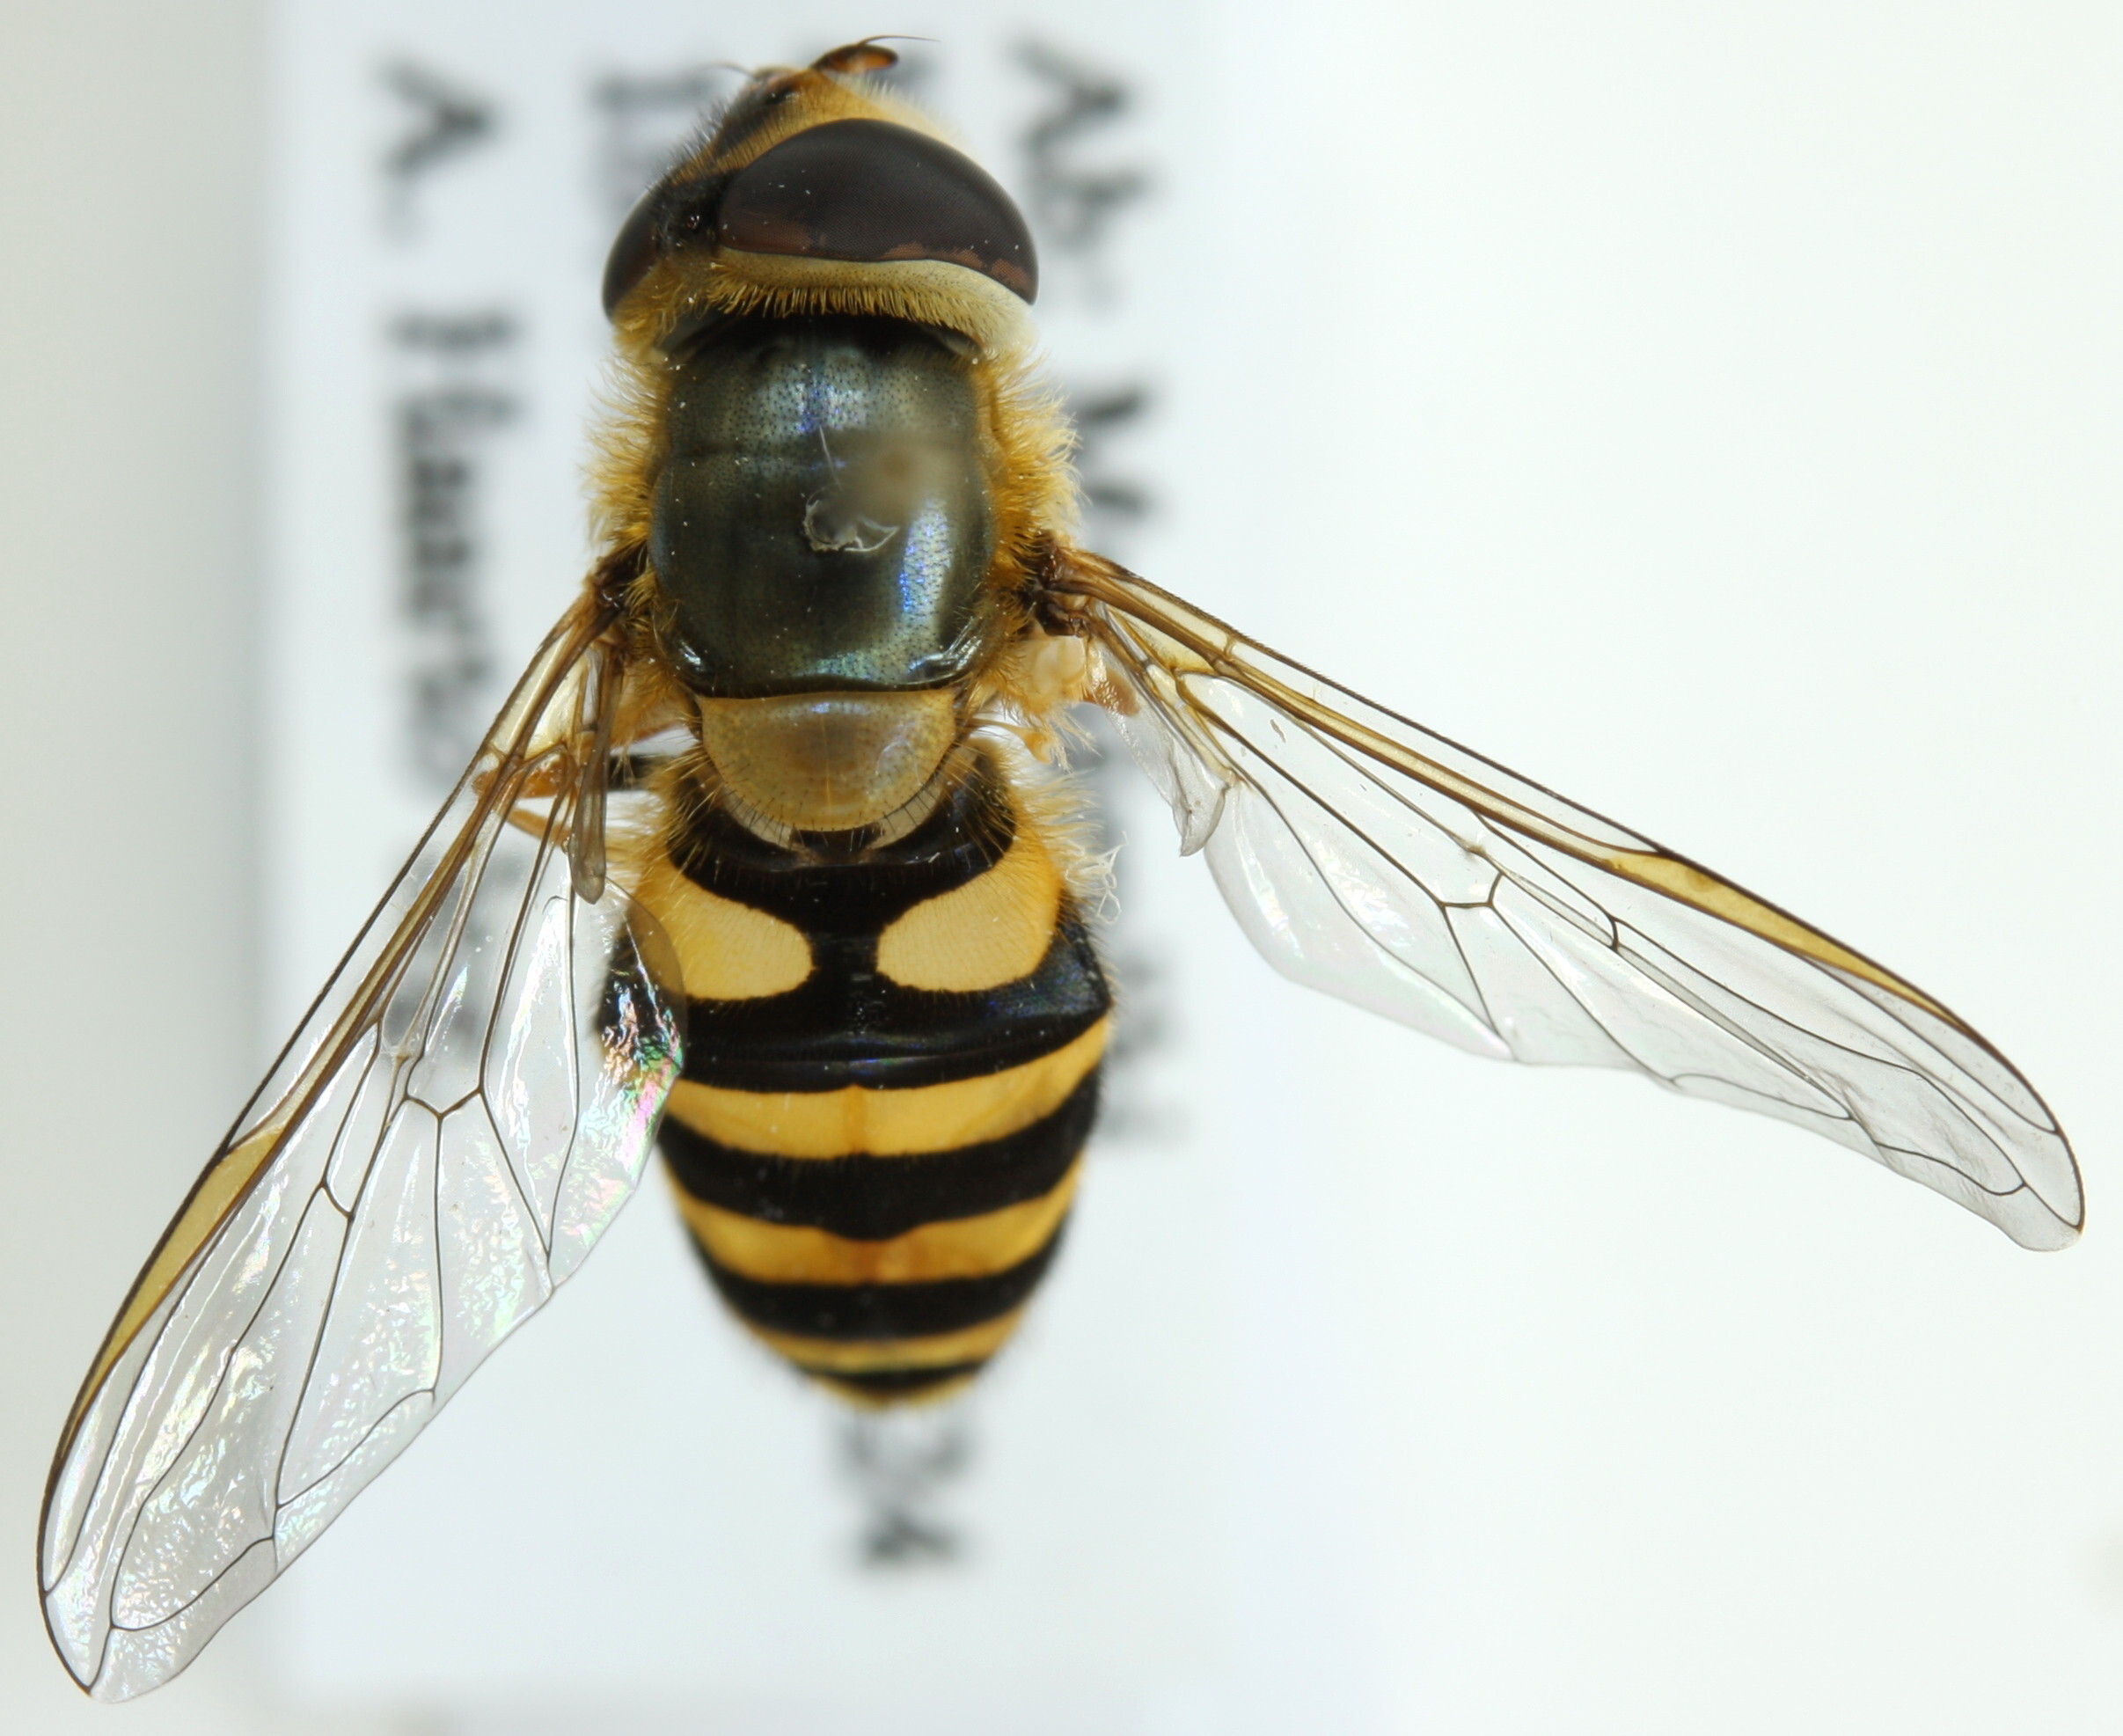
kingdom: Animalia
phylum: Arthropoda
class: Insecta
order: Diptera
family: Syrphidae
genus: Syrphus
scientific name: Syrphus vitripennis
